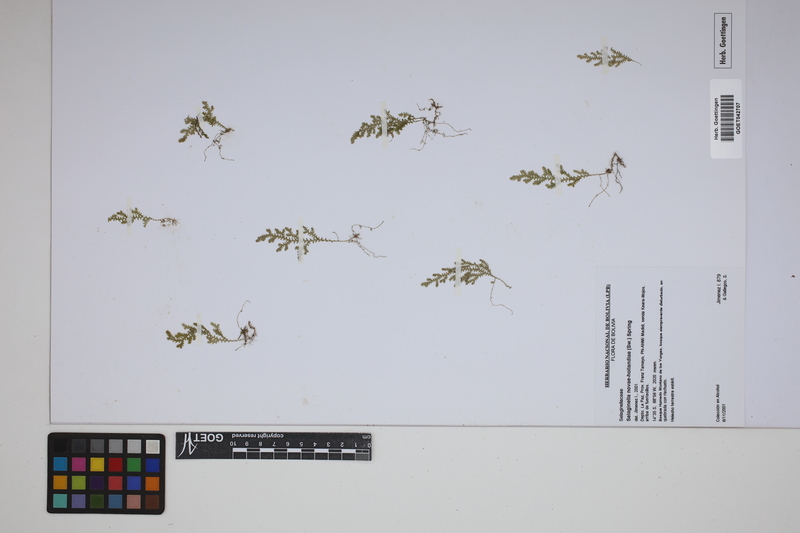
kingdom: Plantae
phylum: Tracheophyta
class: Lycopodiopsida
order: Selaginellales
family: Selaginellaceae
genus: Selaginella
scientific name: Selaginella novae-hollandiae
